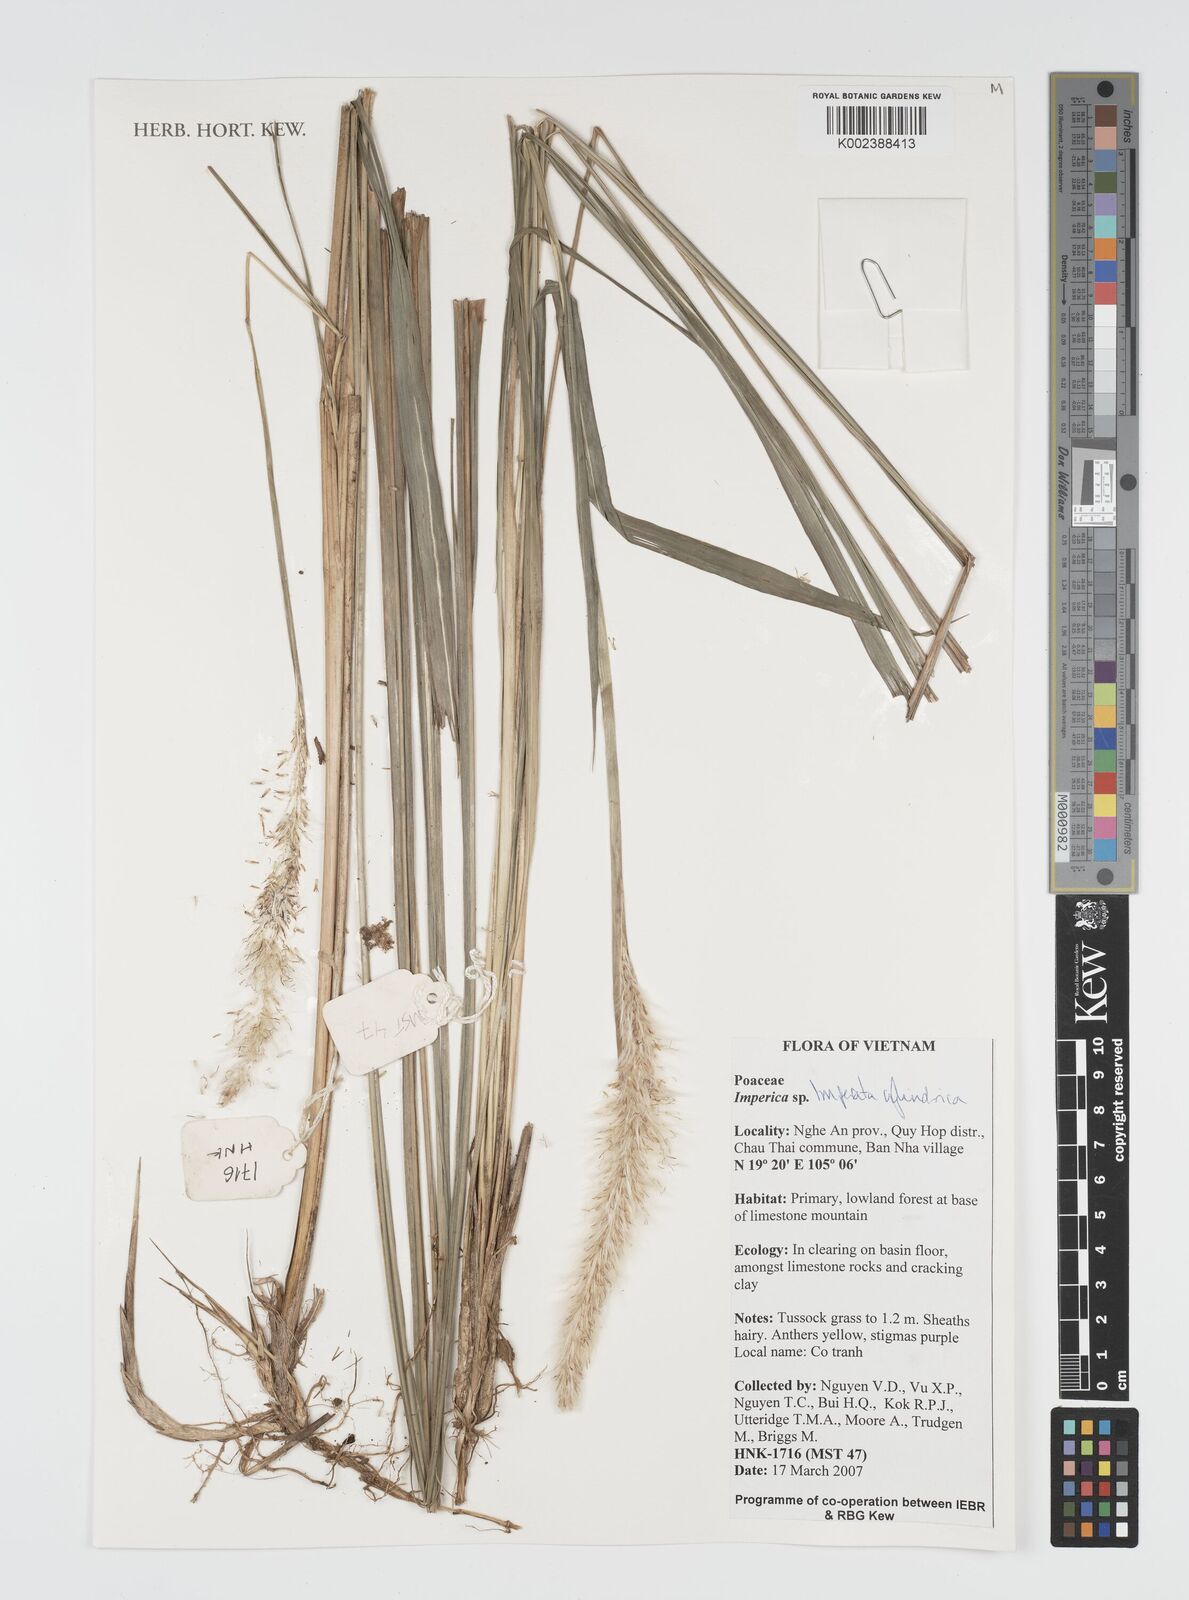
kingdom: Plantae
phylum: Tracheophyta
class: Liliopsida
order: Poales
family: Poaceae
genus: Imperata
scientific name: Imperata cylindrica
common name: Cogongrass
